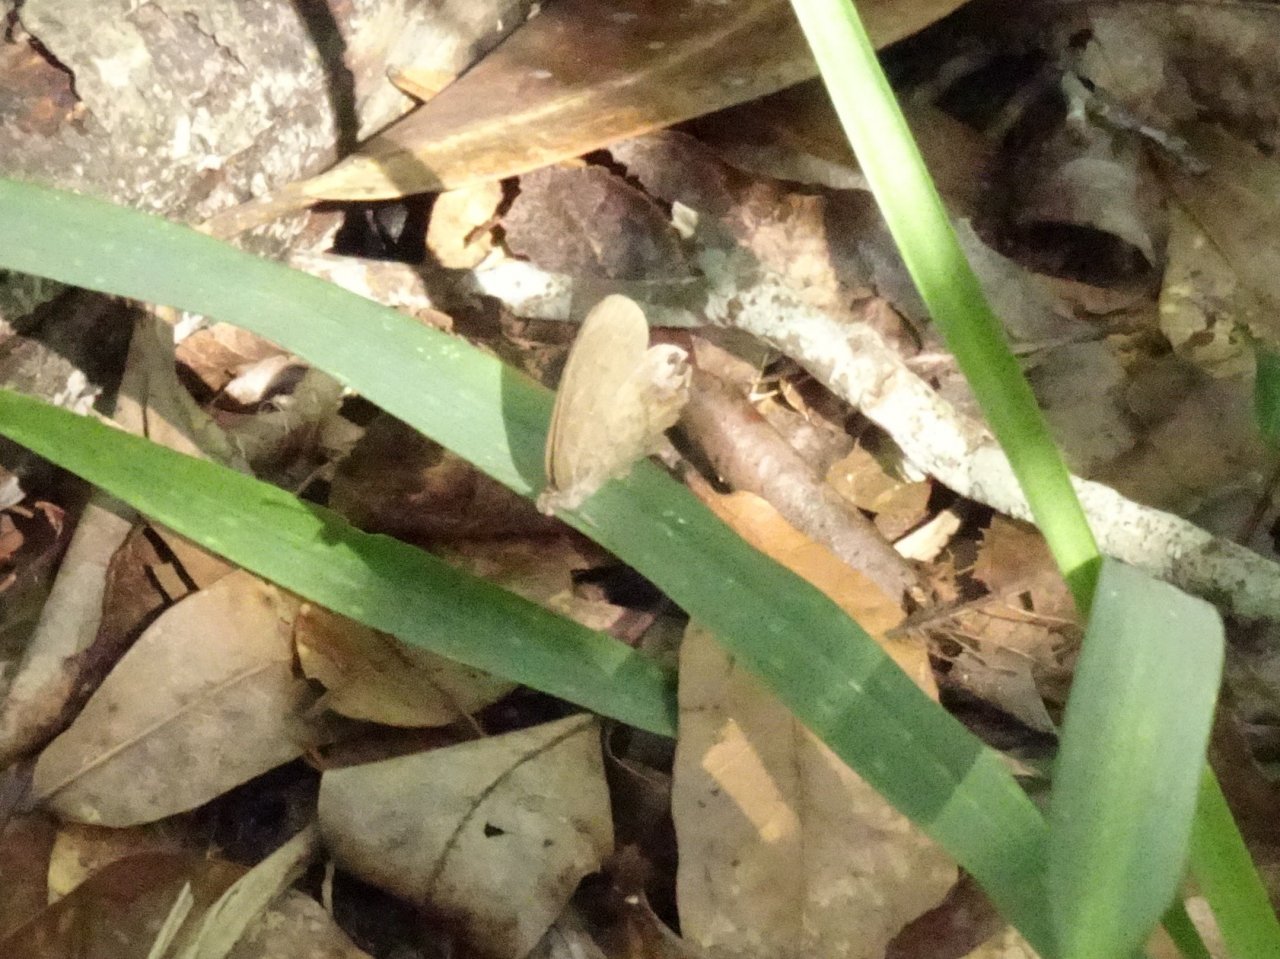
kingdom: Animalia
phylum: Arthropoda
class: Insecta
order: Lepidoptera
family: Nymphalidae
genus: Euptychia
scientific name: Euptychia cornelius
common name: Gemmed Satyr
